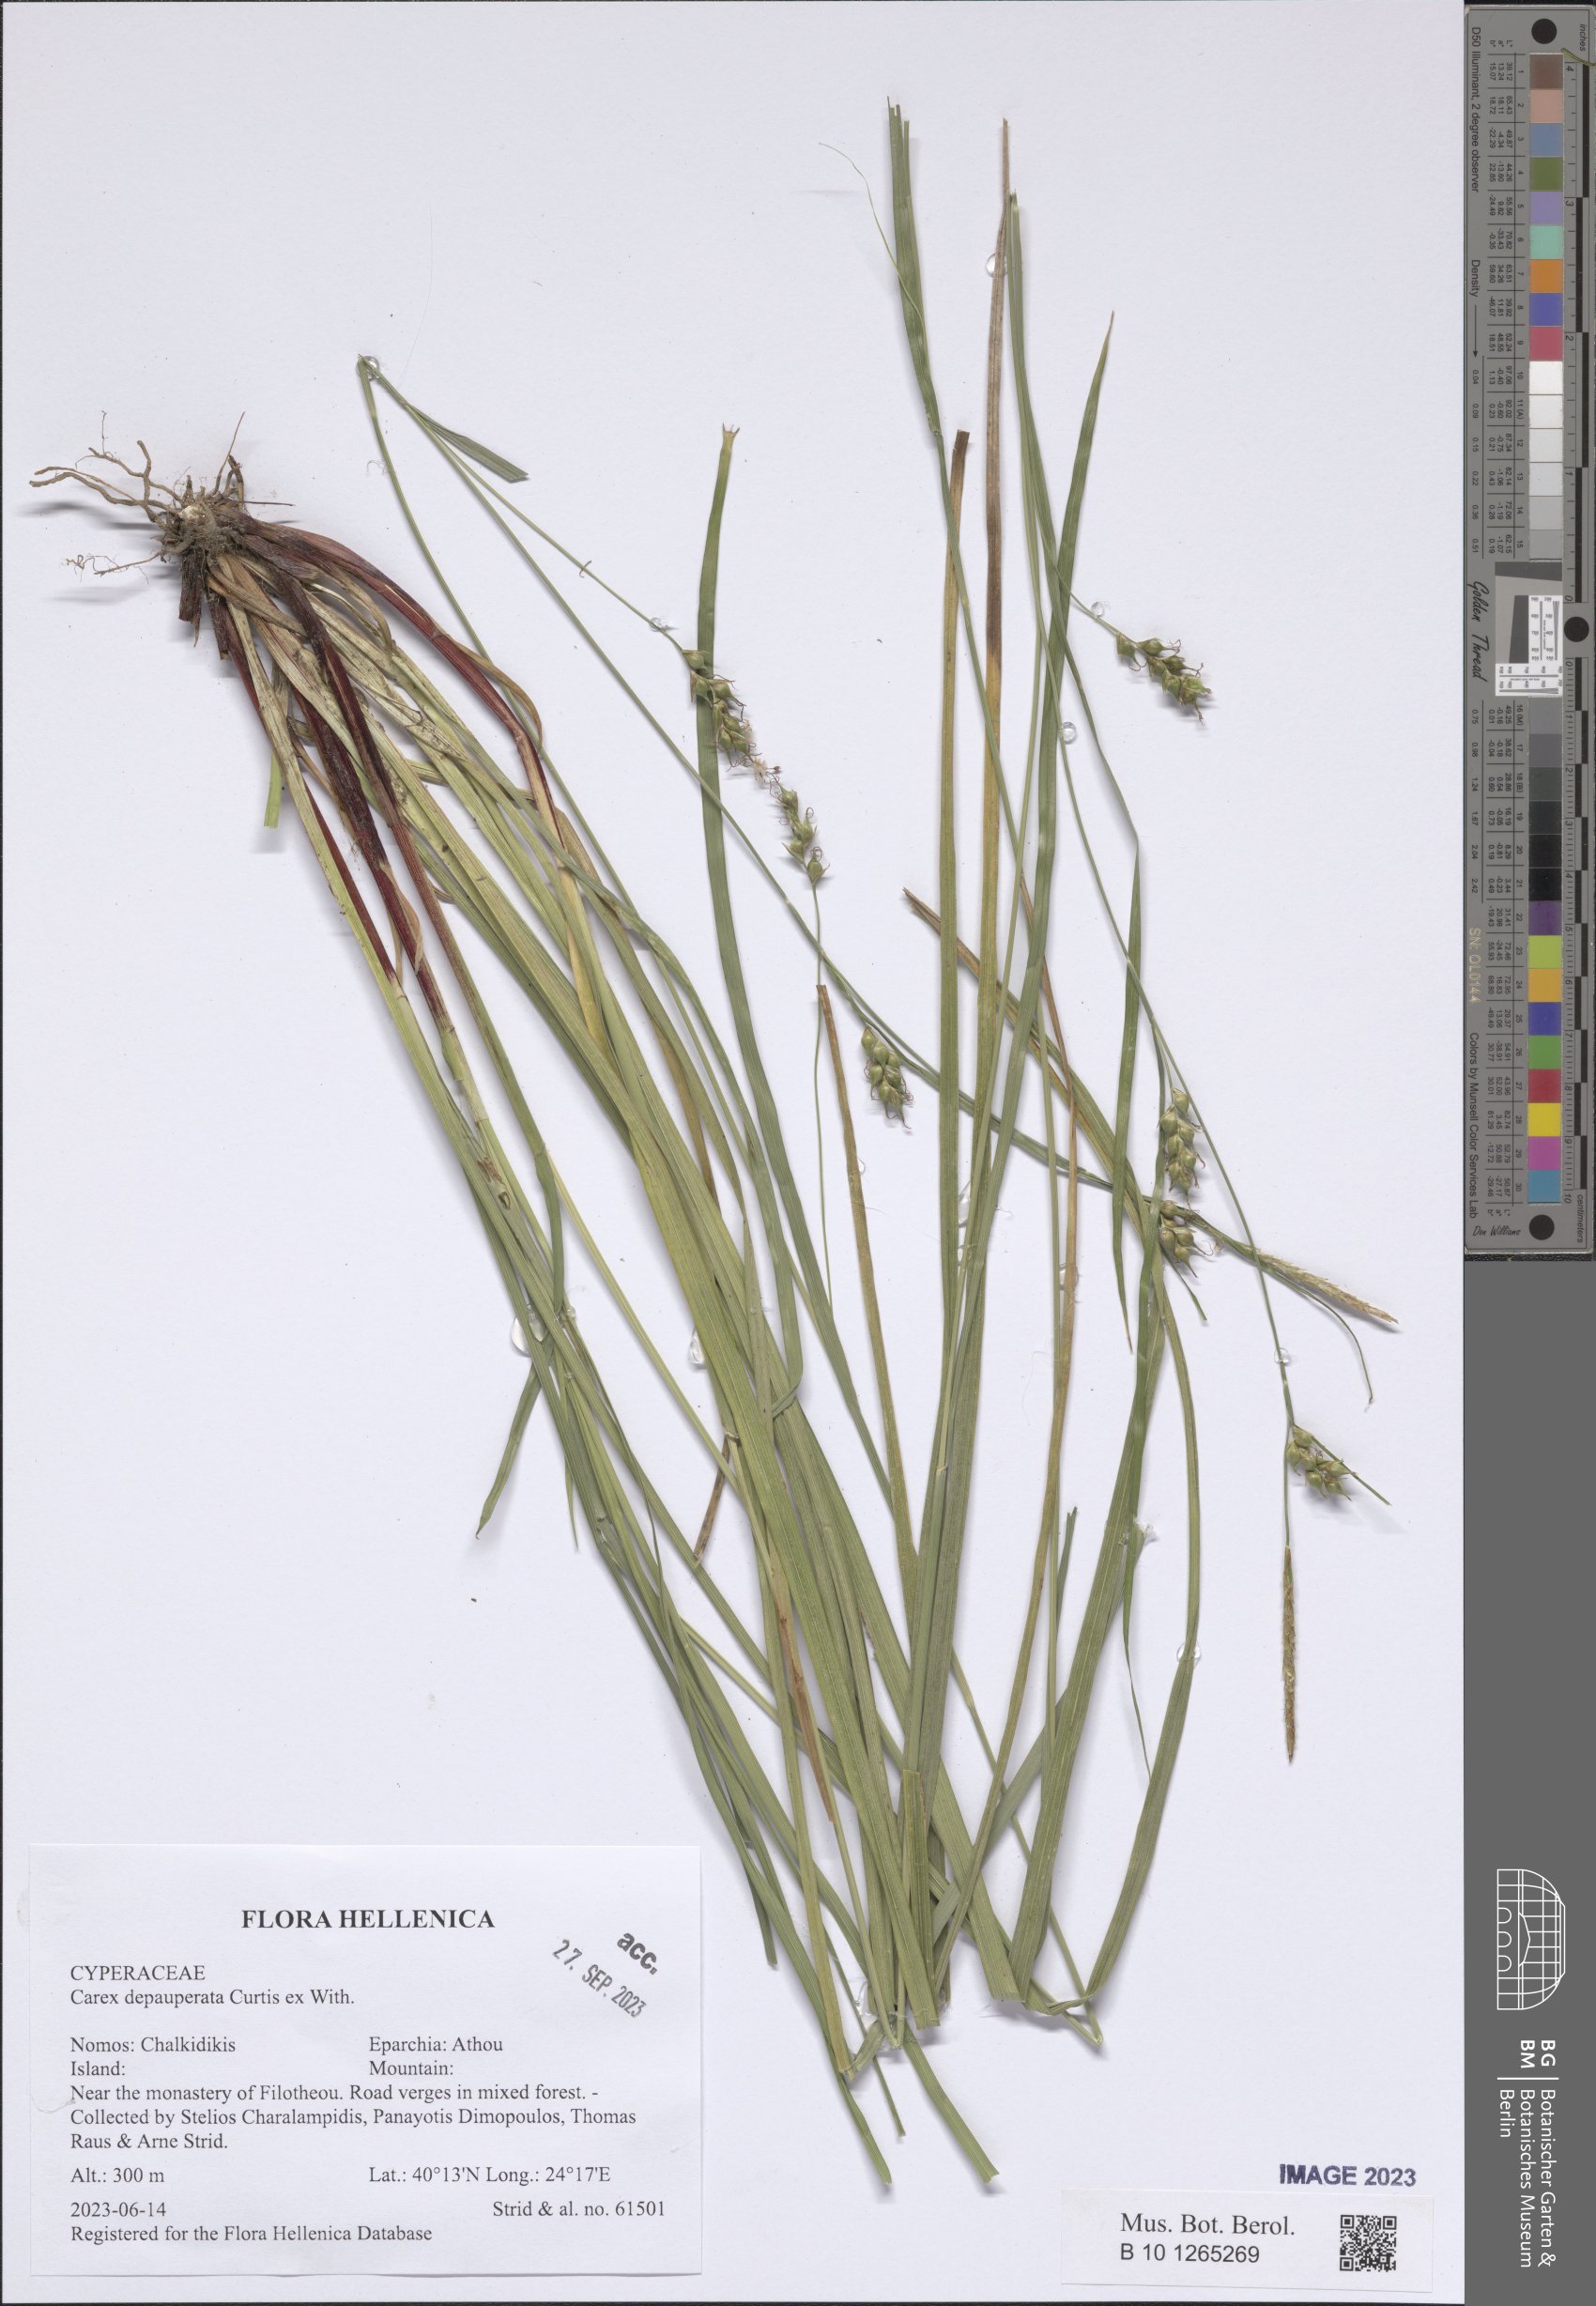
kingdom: Plantae
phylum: Tracheophyta
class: Liliopsida
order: Poales
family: Cyperaceae
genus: Carex
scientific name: Carex depauperata
